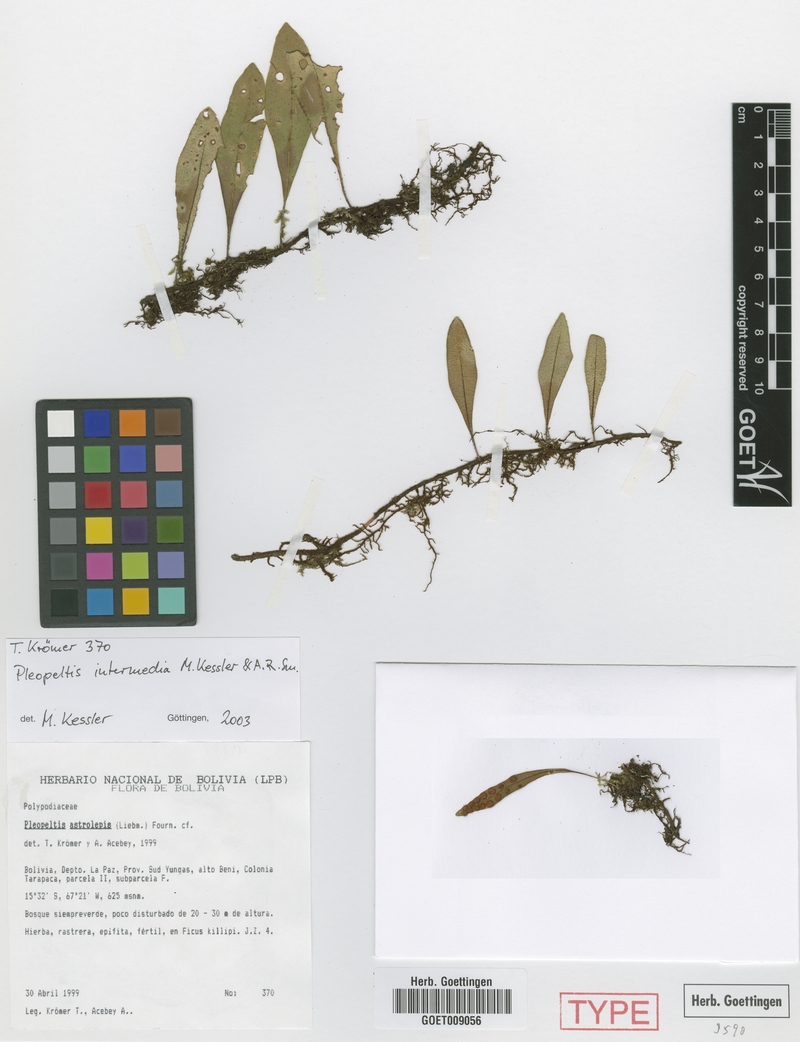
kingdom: Plantae
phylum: Tracheophyta
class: Polypodiopsida
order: Polypodiales
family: Polypodiaceae
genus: Pleopeltis
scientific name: Pleopeltis intermedia
